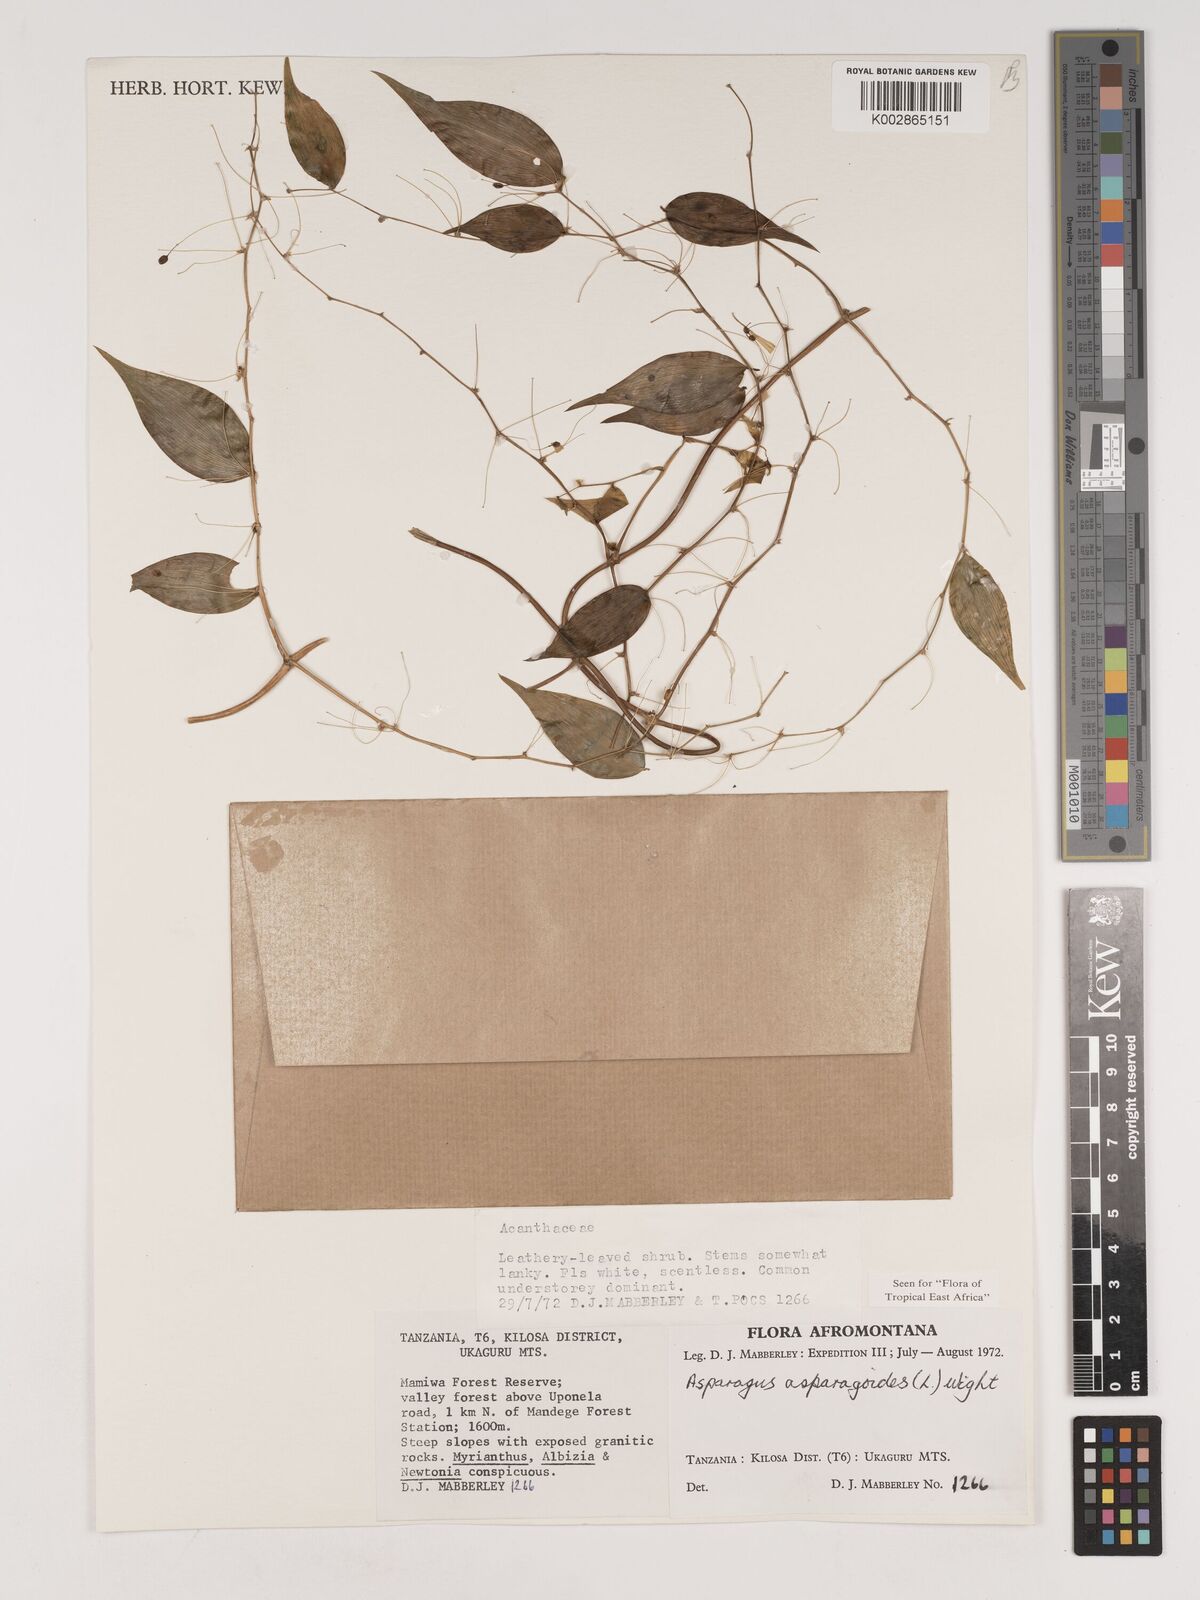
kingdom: Plantae
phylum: Tracheophyta
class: Liliopsida
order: Asparagales
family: Asparagaceae
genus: Asparagus
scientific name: Asparagus asparagoides
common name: African asparagus fern
